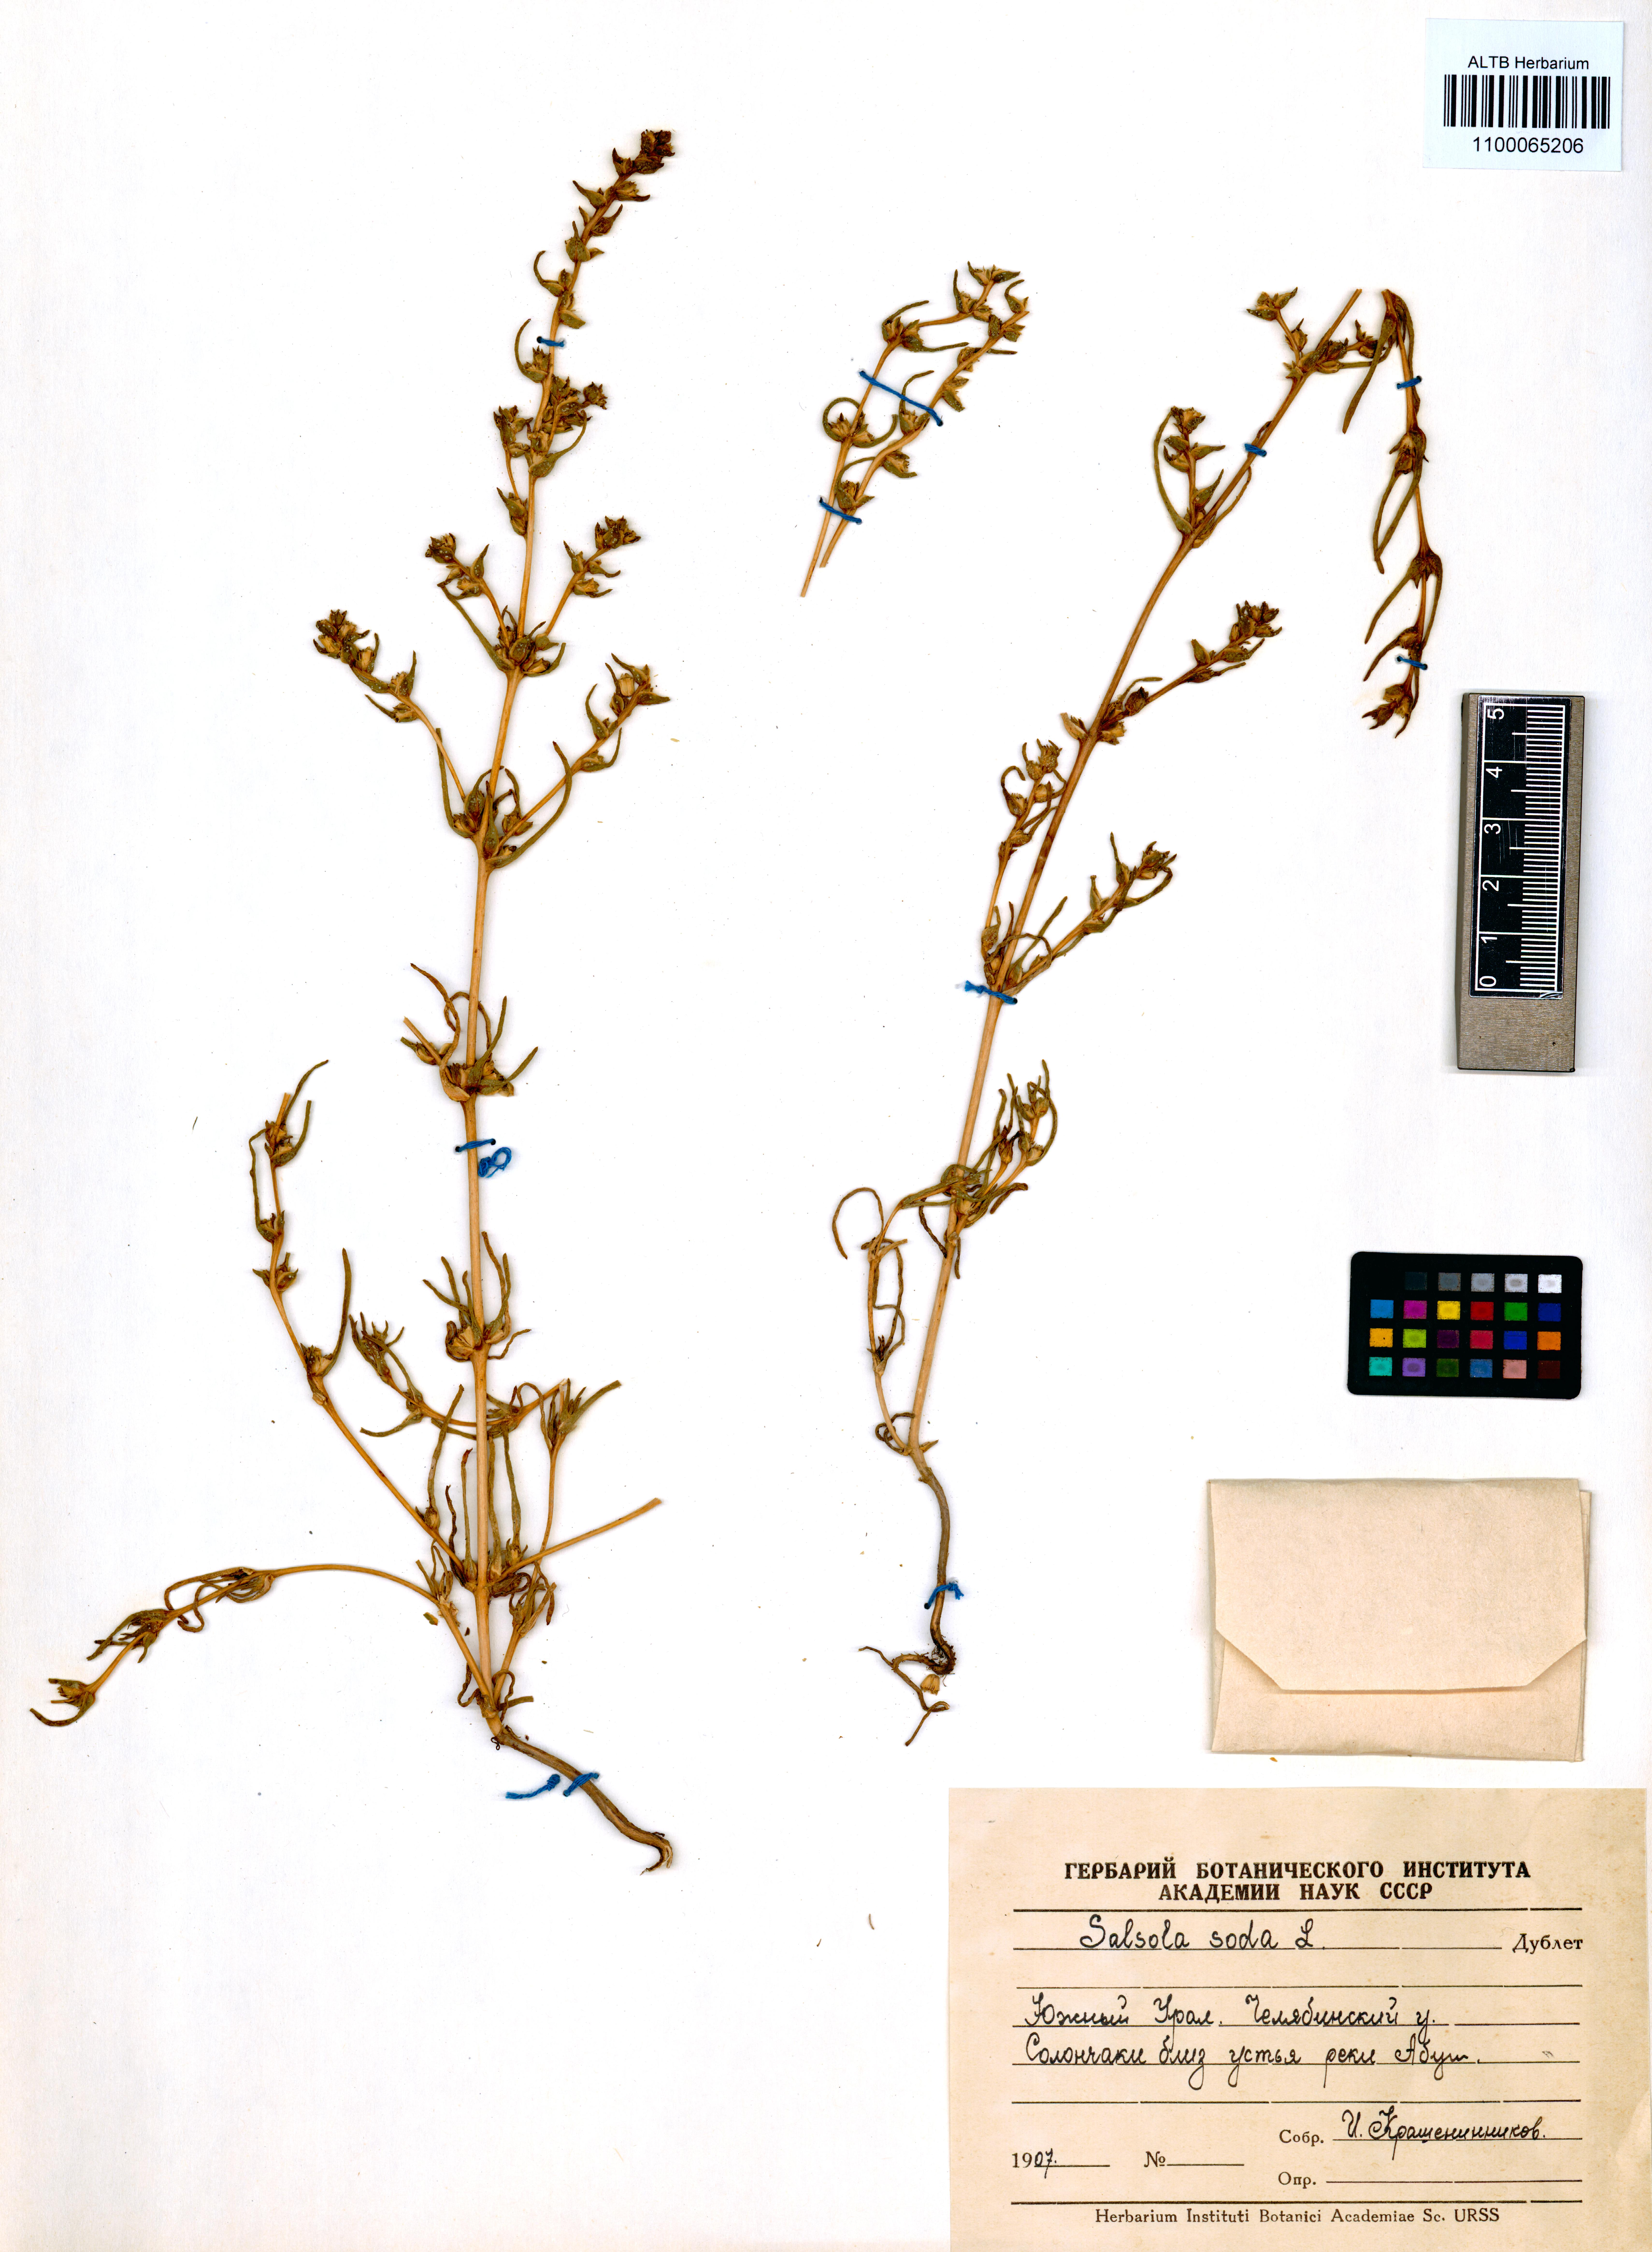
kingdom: Plantae
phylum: Tracheophyta
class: Magnoliopsida
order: Caryophyllales
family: Amaranthaceae
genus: Soda
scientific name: Soda inermis
